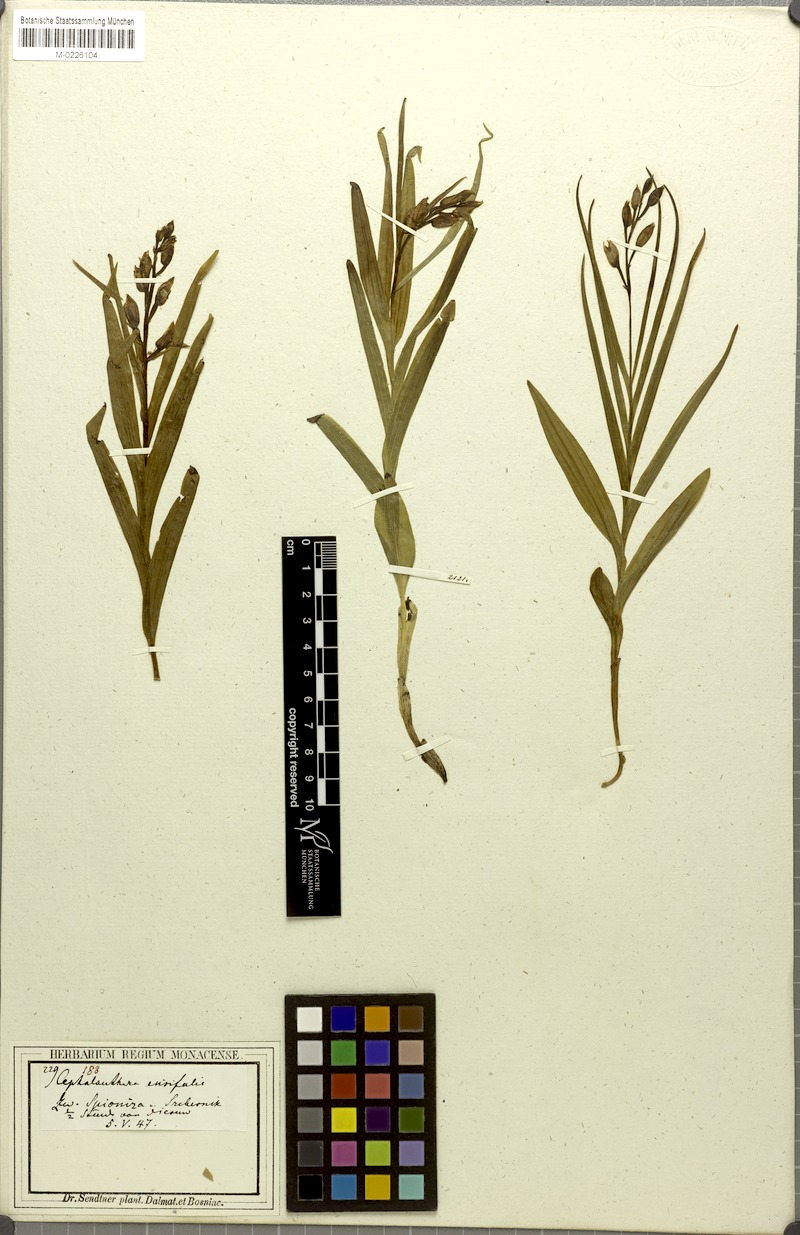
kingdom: Plantae
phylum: Tracheophyta
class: Liliopsida
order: Asparagales
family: Orchidaceae
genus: Cephalanthera
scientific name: Cephalanthera longifolia
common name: Narrow-leaved helleborine
